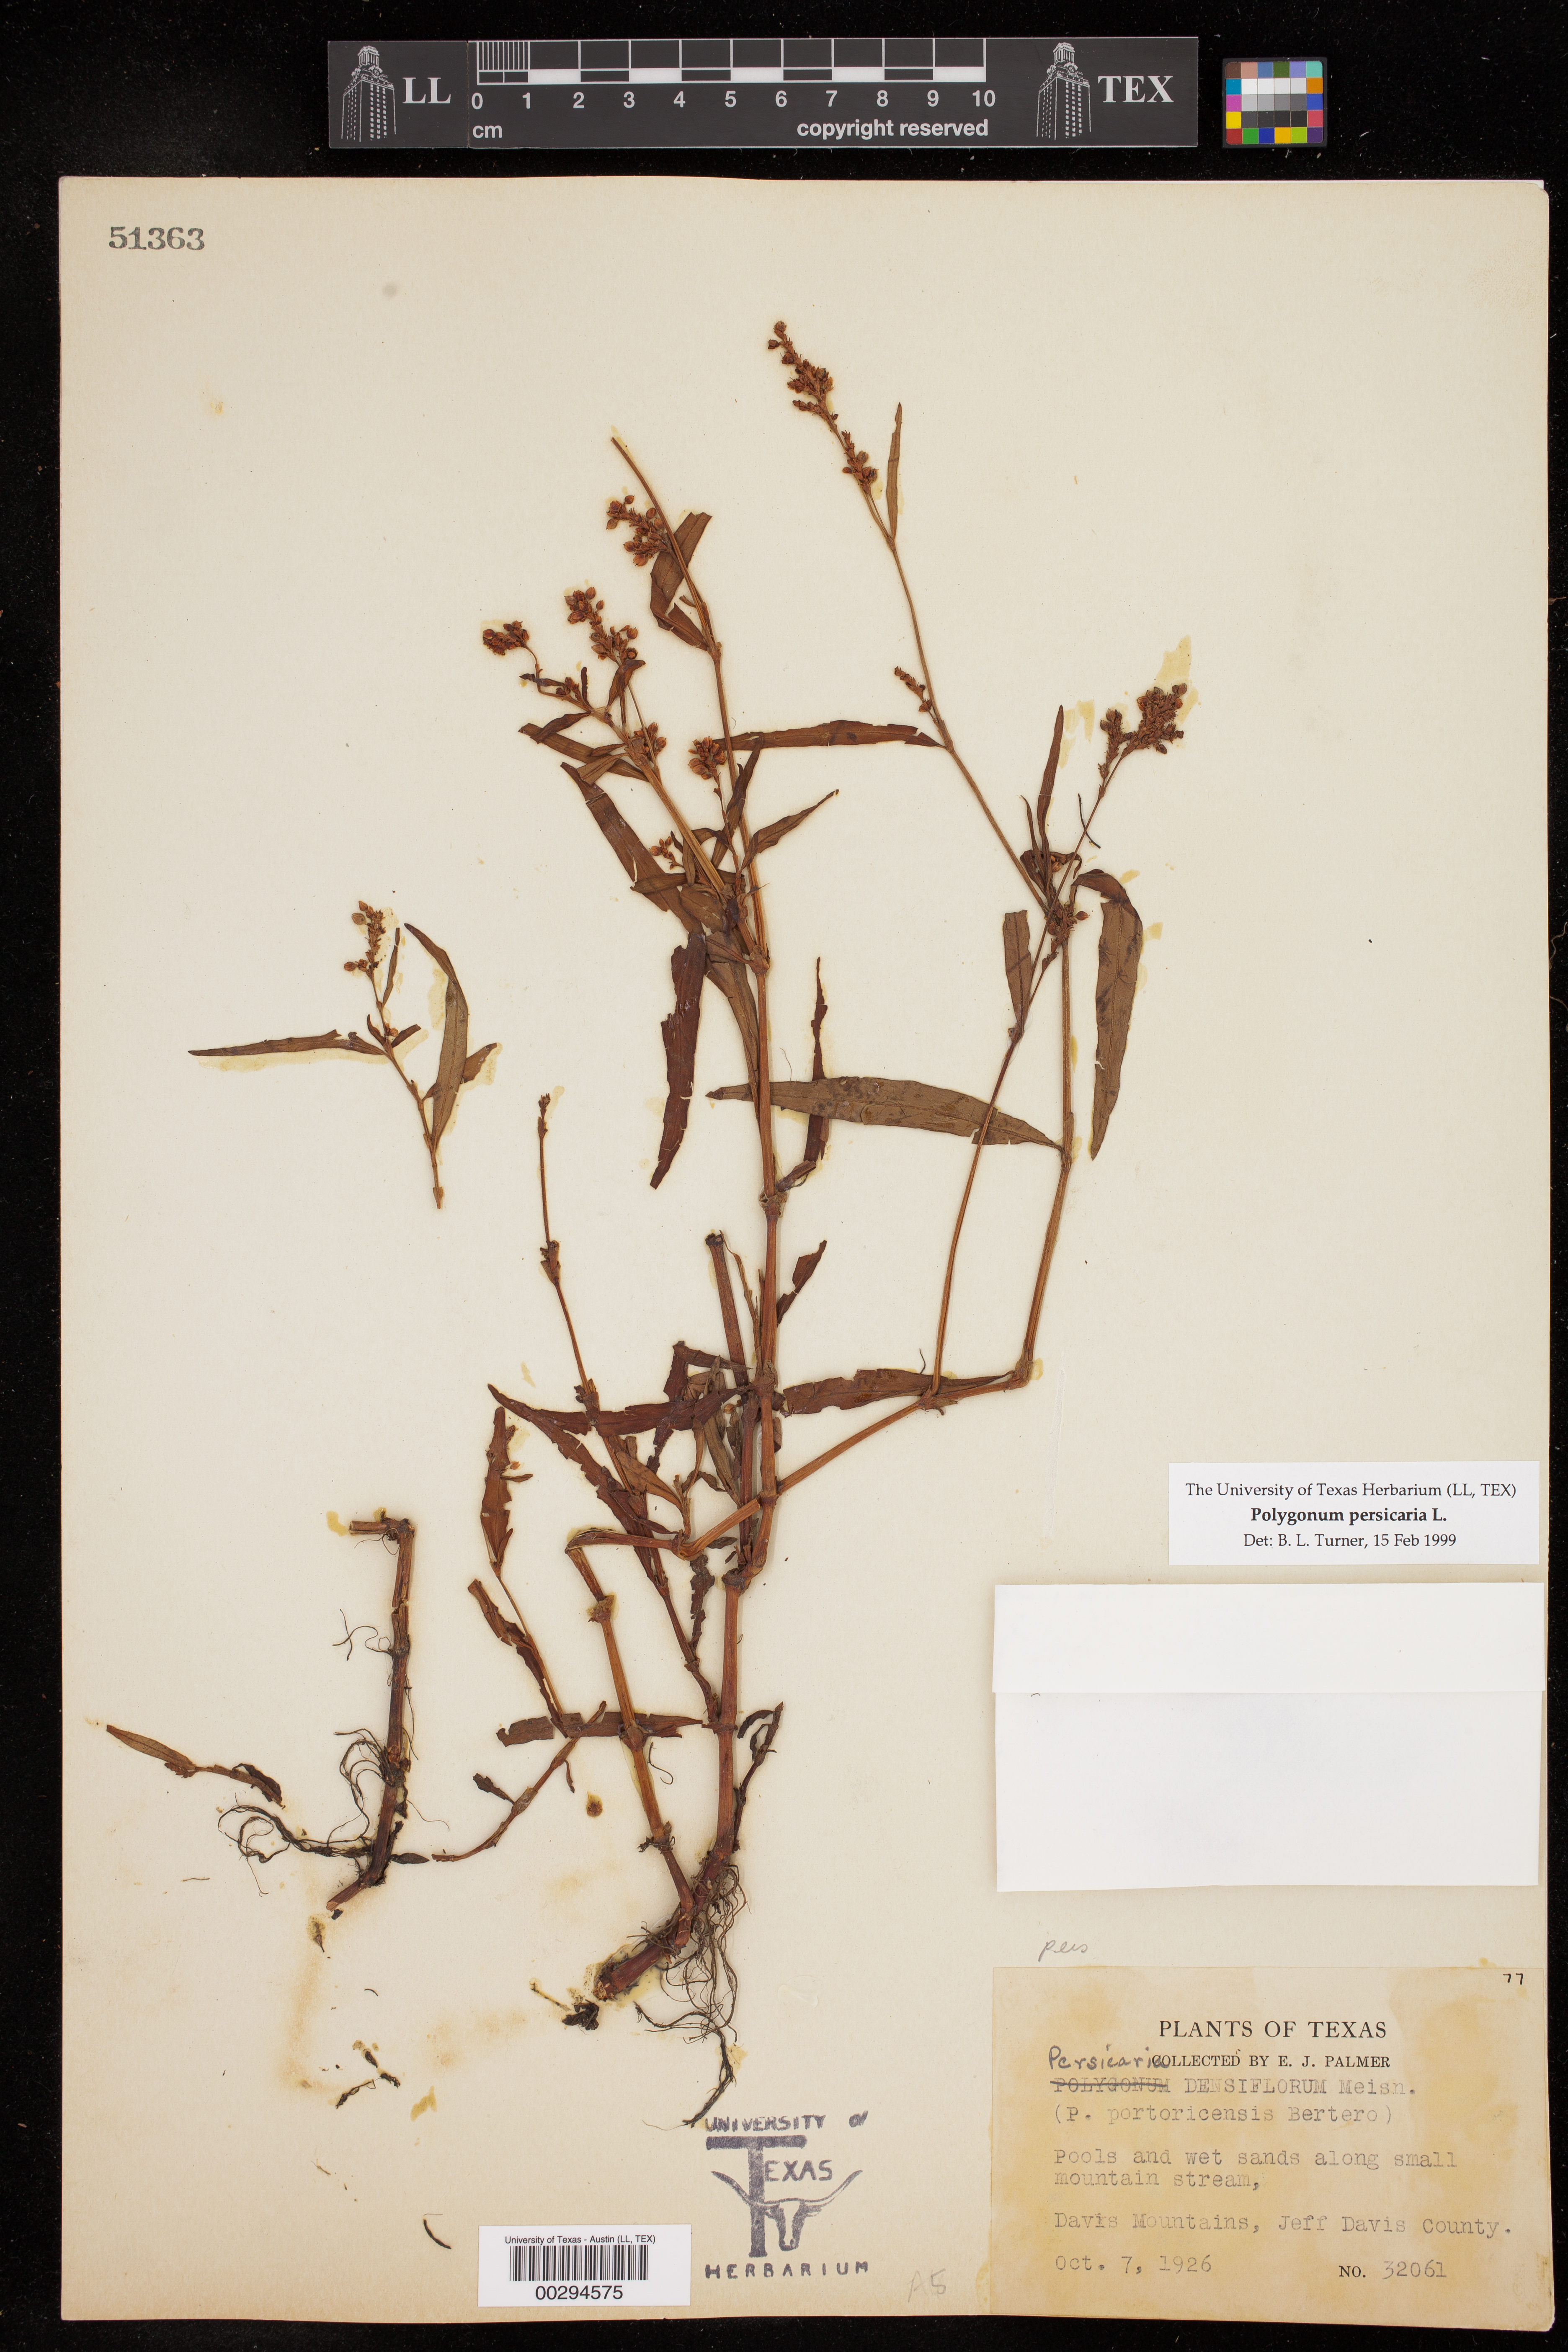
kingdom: Plantae
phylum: Tracheophyta
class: Magnoliopsida
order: Caryophyllales
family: Polygonaceae
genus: Persicaria
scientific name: Persicaria maculosa
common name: Redshank
